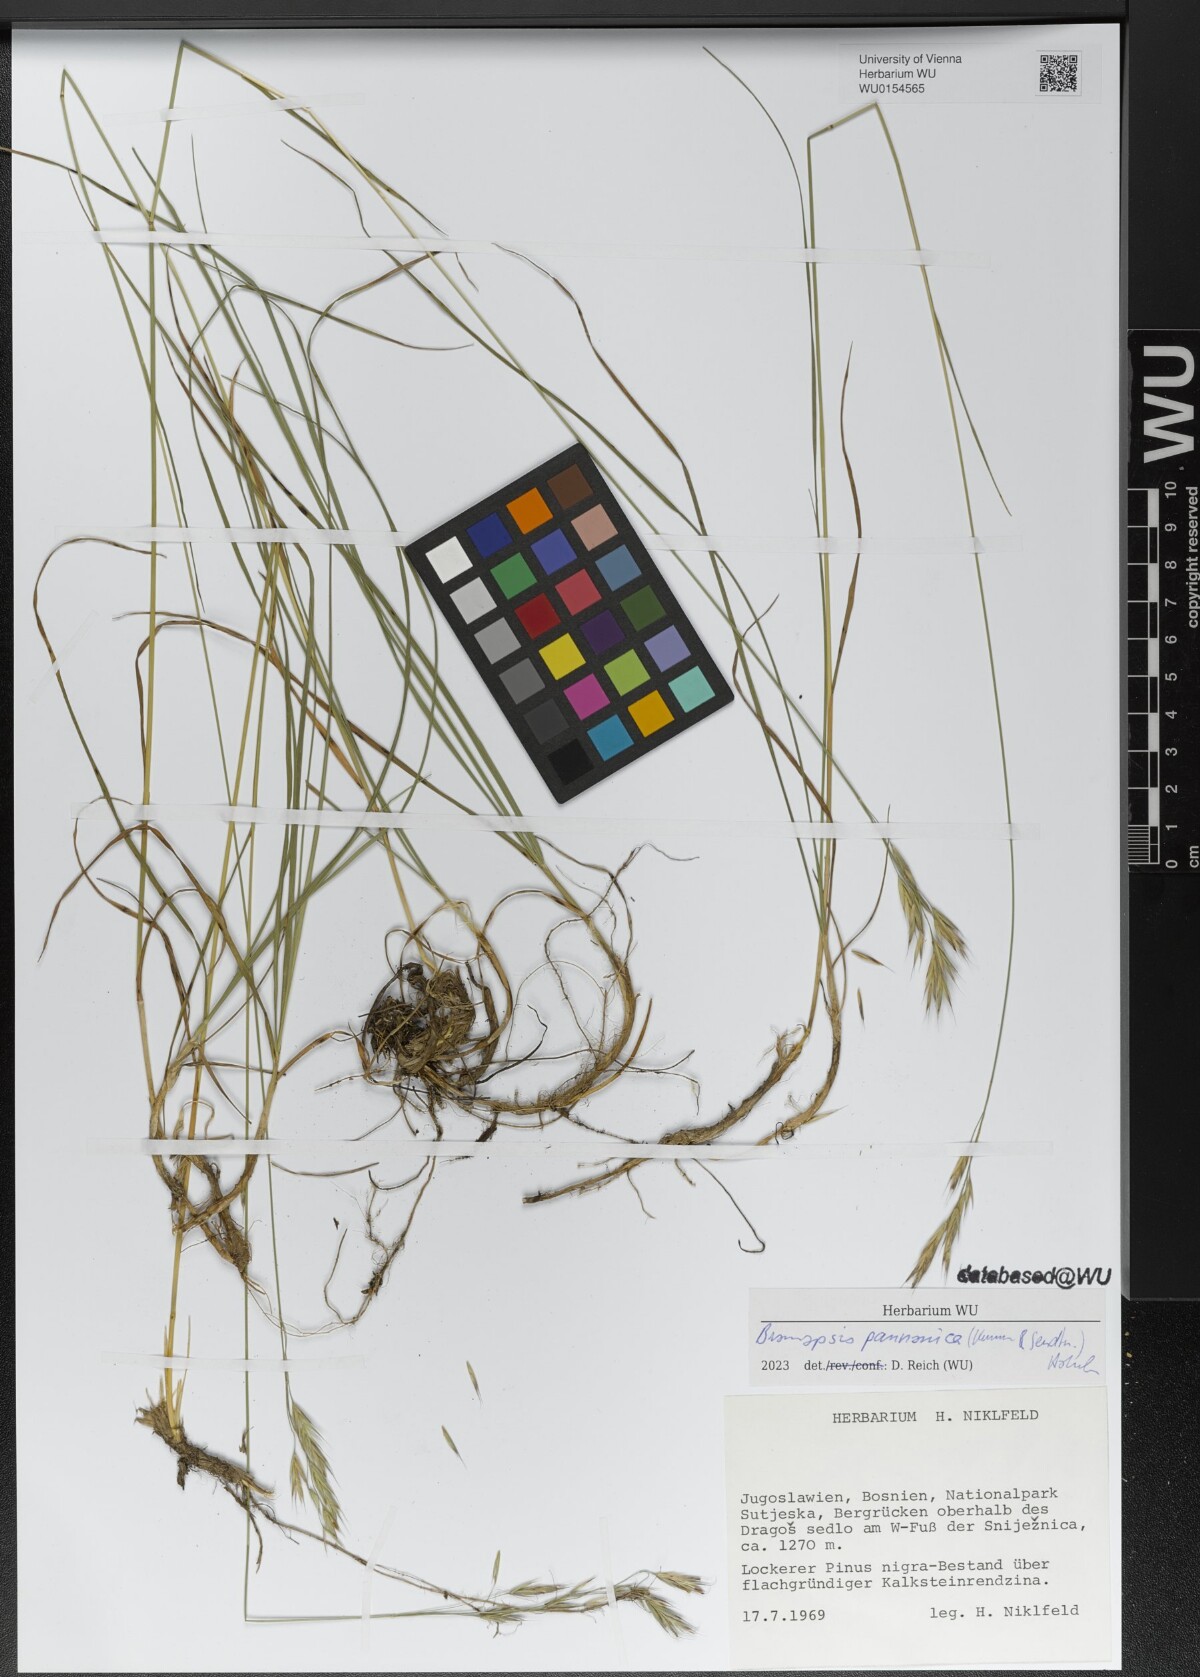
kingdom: Plantae
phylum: Tracheophyta
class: Liliopsida
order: Poales
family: Poaceae
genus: Bromus
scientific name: Bromus pannonicus
